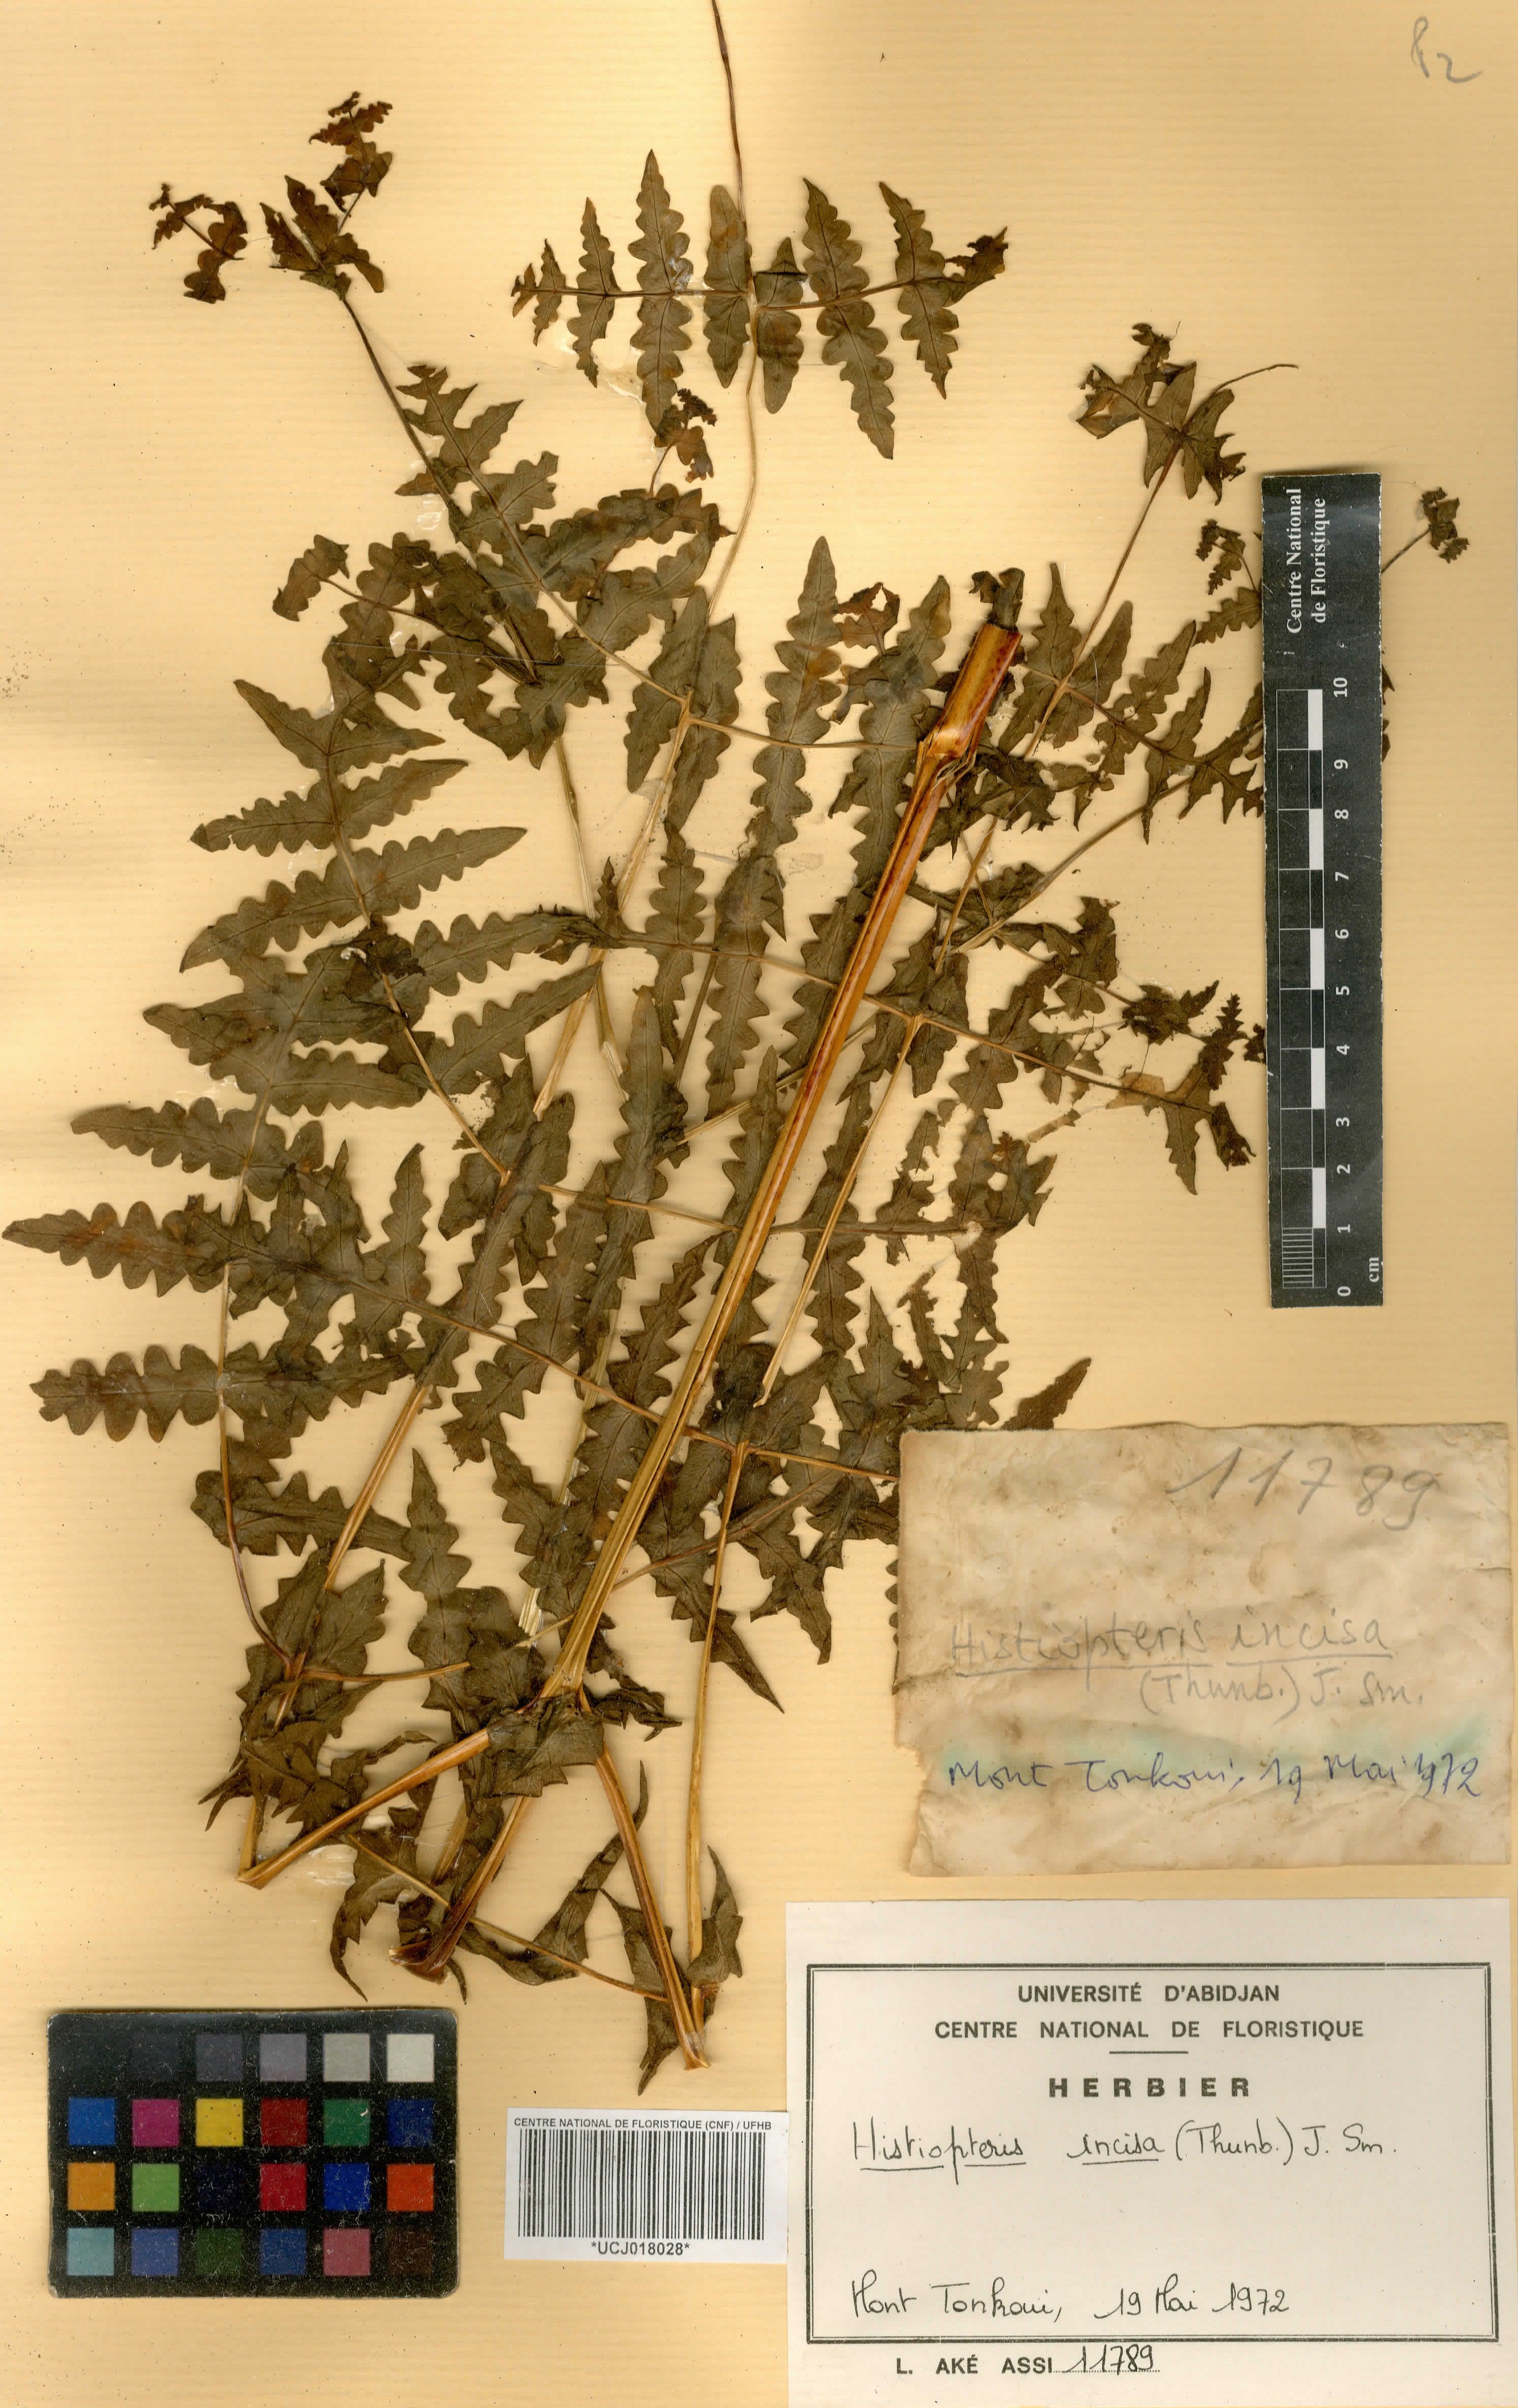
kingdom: Plantae
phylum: Tracheophyta
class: Polypodiopsida
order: Polypodiales
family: Dennstaedtiaceae
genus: Histiopteris
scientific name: Histiopteris incisa
